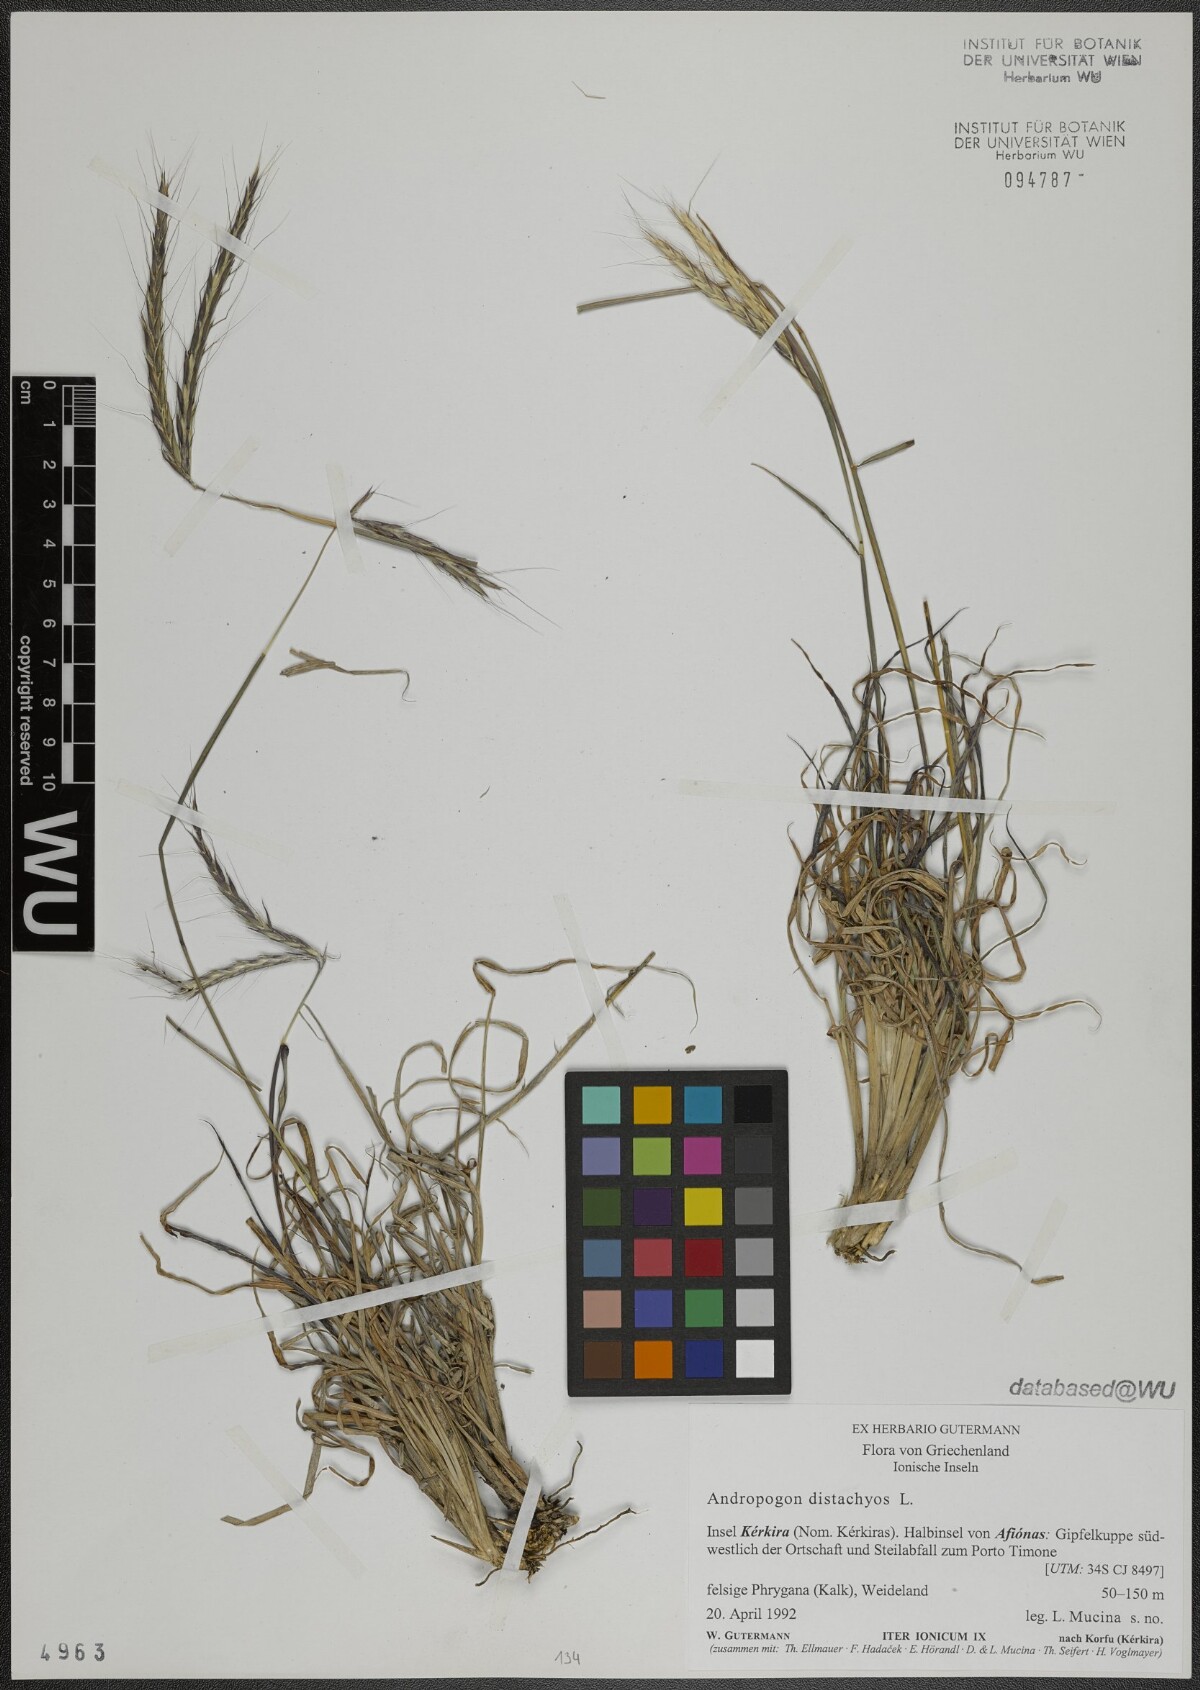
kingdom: Plantae
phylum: Tracheophyta
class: Liliopsida
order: Poales
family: Poaceae
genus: Andropogon
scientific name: Andropogon distachyos
